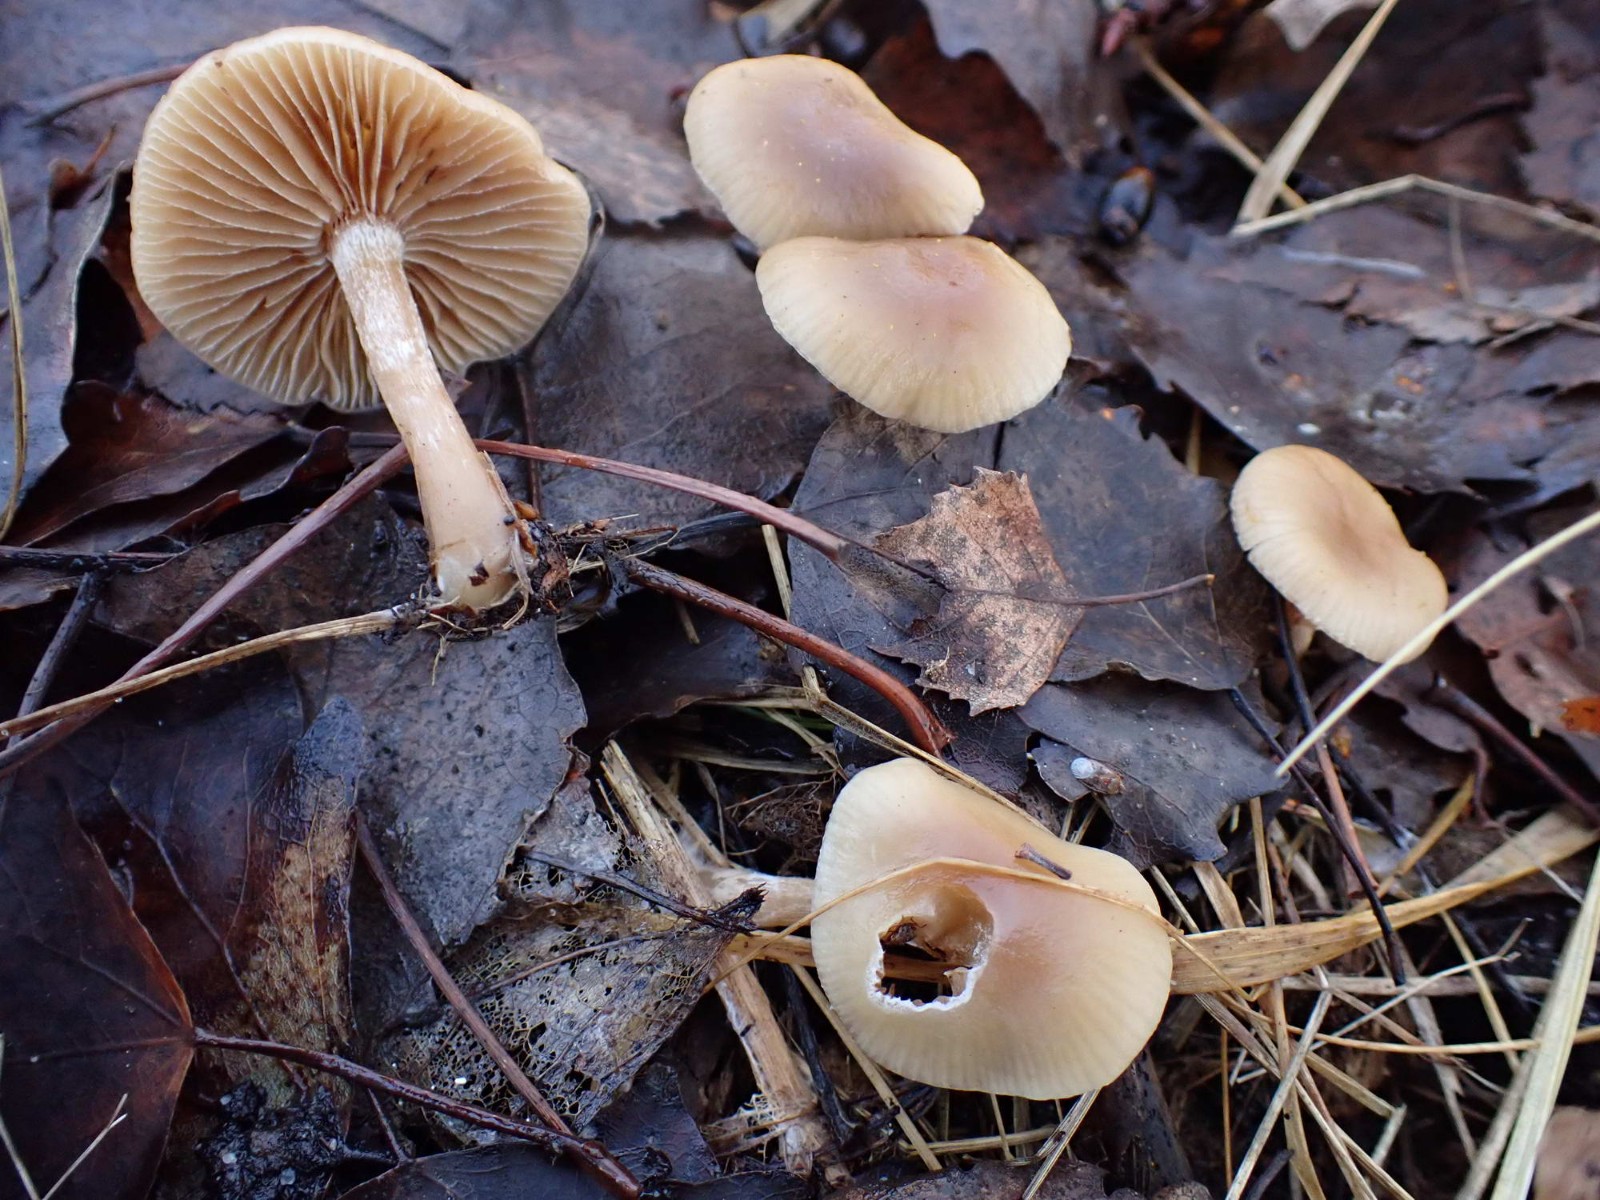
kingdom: Fungi
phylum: Basidiomycota
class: Agaricomycetes
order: Agaricales
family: Strophariaceae
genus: Meottomyces
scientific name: Meottomyces dissimulans
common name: smudsigbrun vinterskælhat
